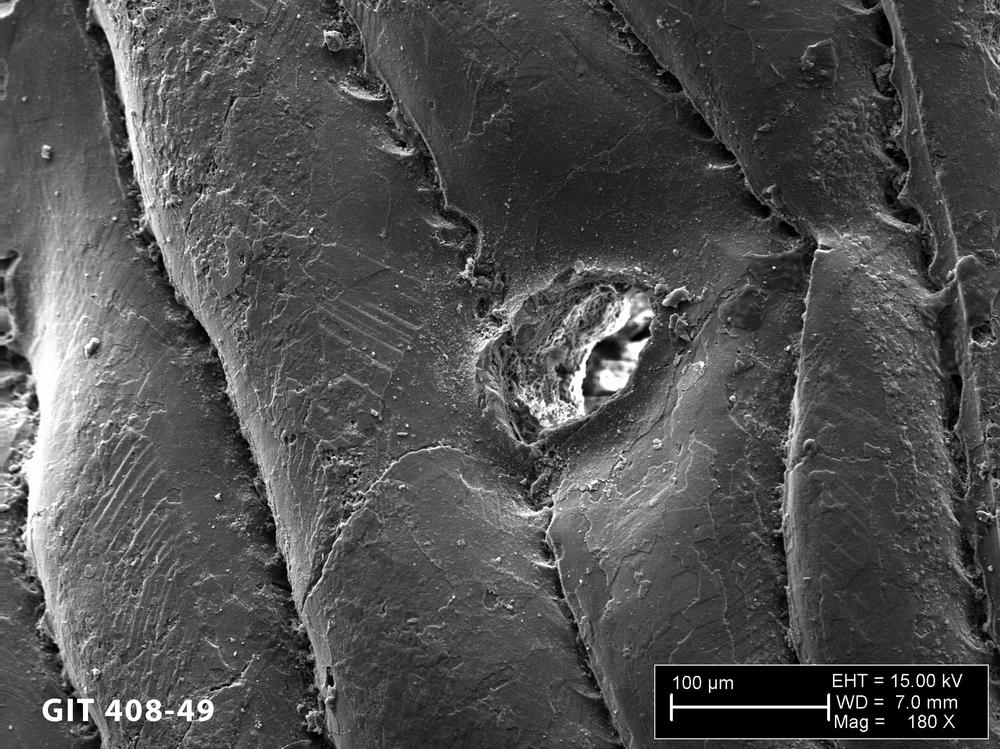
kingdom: Animalia
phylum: Chordata
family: Cyathaspididae
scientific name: Cyathaspididae
